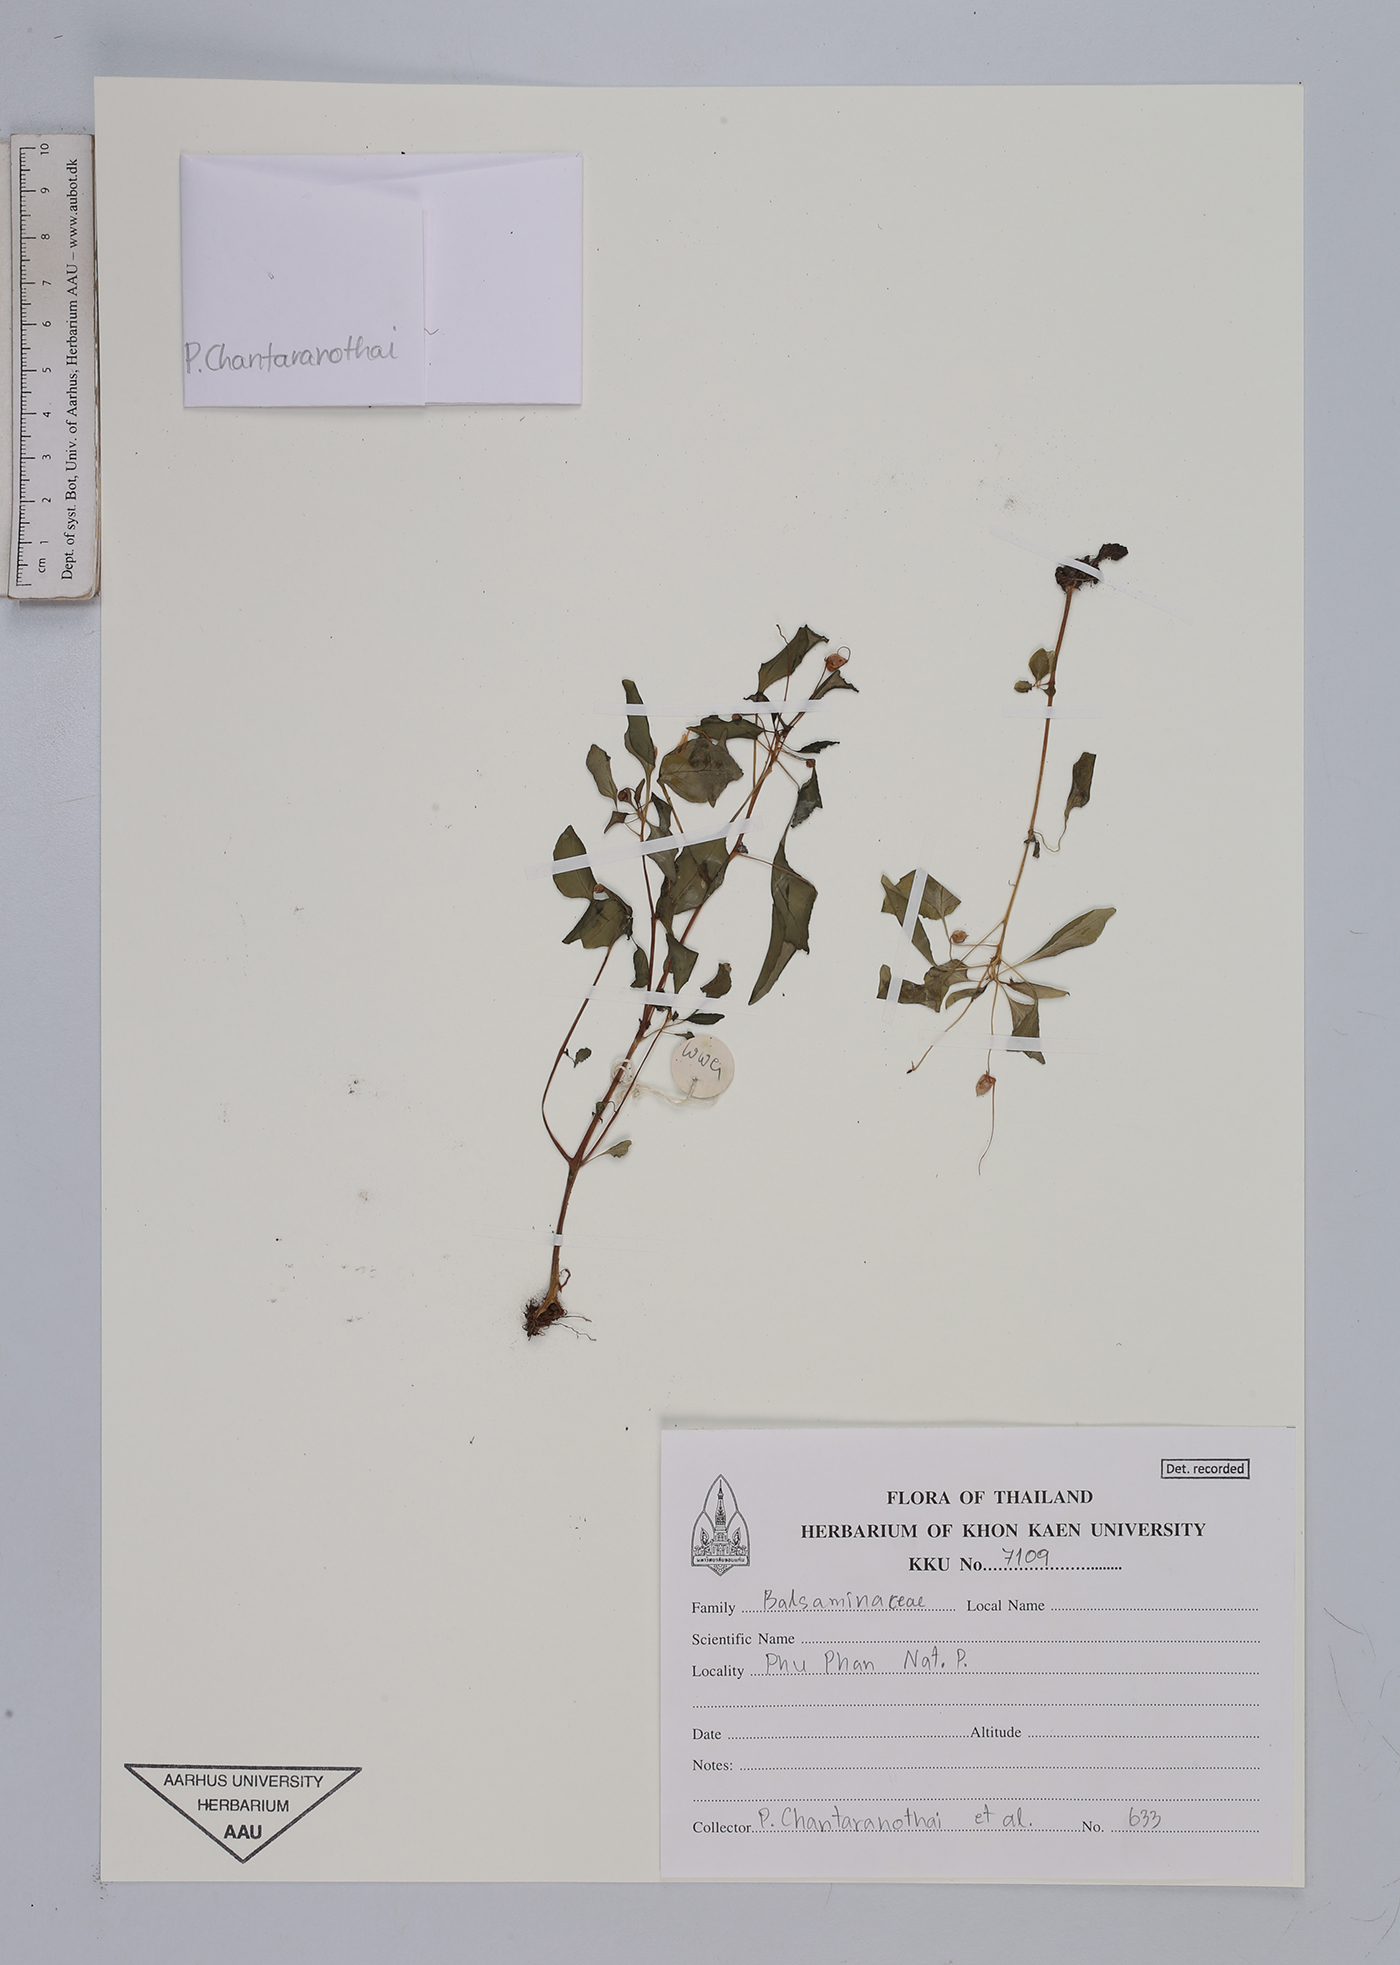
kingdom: Plantae
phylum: Tracheophyta
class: Magnoliopsida
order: Ericales
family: Balsaminaceae
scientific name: Balsaminaceae
